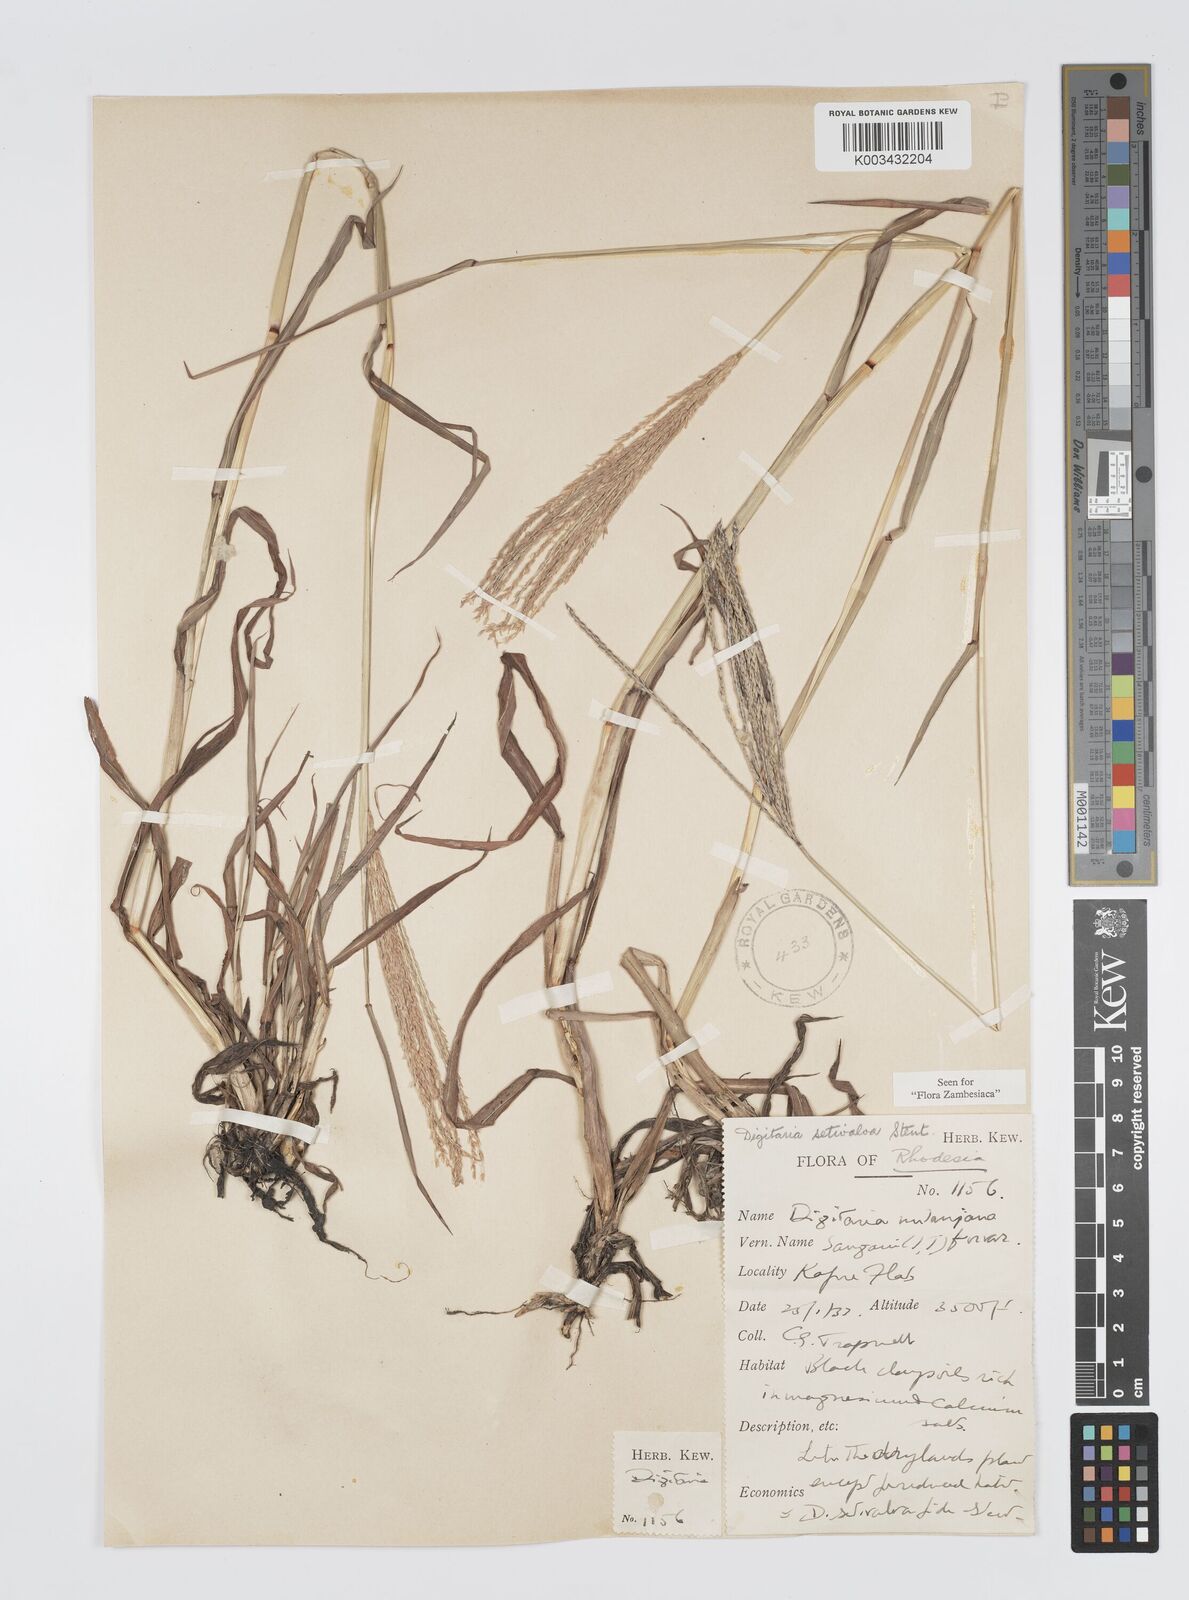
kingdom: Plantae
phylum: Tracheophyta
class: Liliopsida
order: Poales
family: Poaceae
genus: Digitaria
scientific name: Digitaria milanjiana
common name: Madagascar crabgrass
